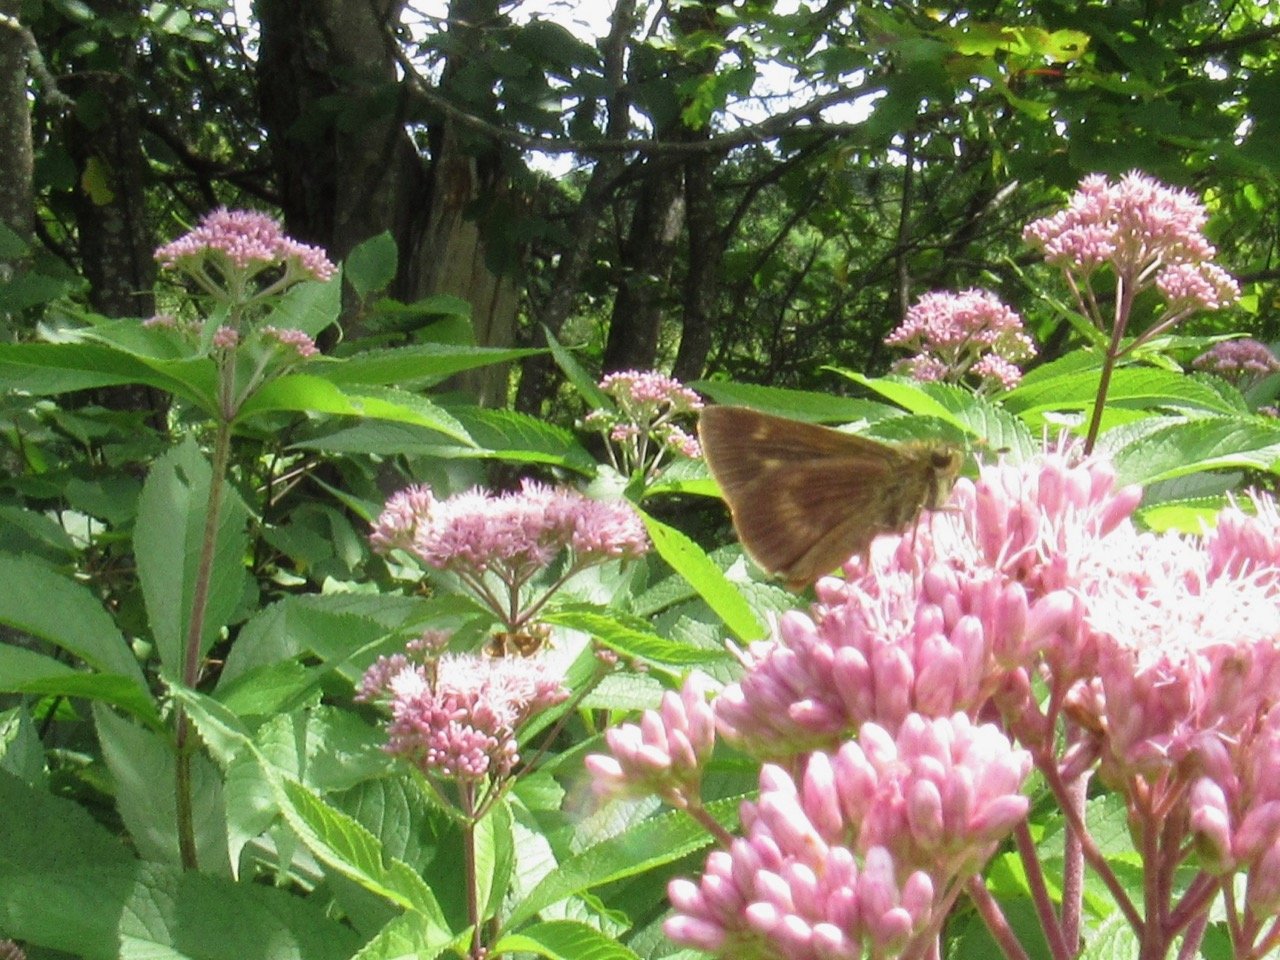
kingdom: Animalia
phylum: Arthropoda
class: Insecta
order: Lepidoptera
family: Hesperiidae
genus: Polites
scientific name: Polites egeremet
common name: Northern Broken-Dash
